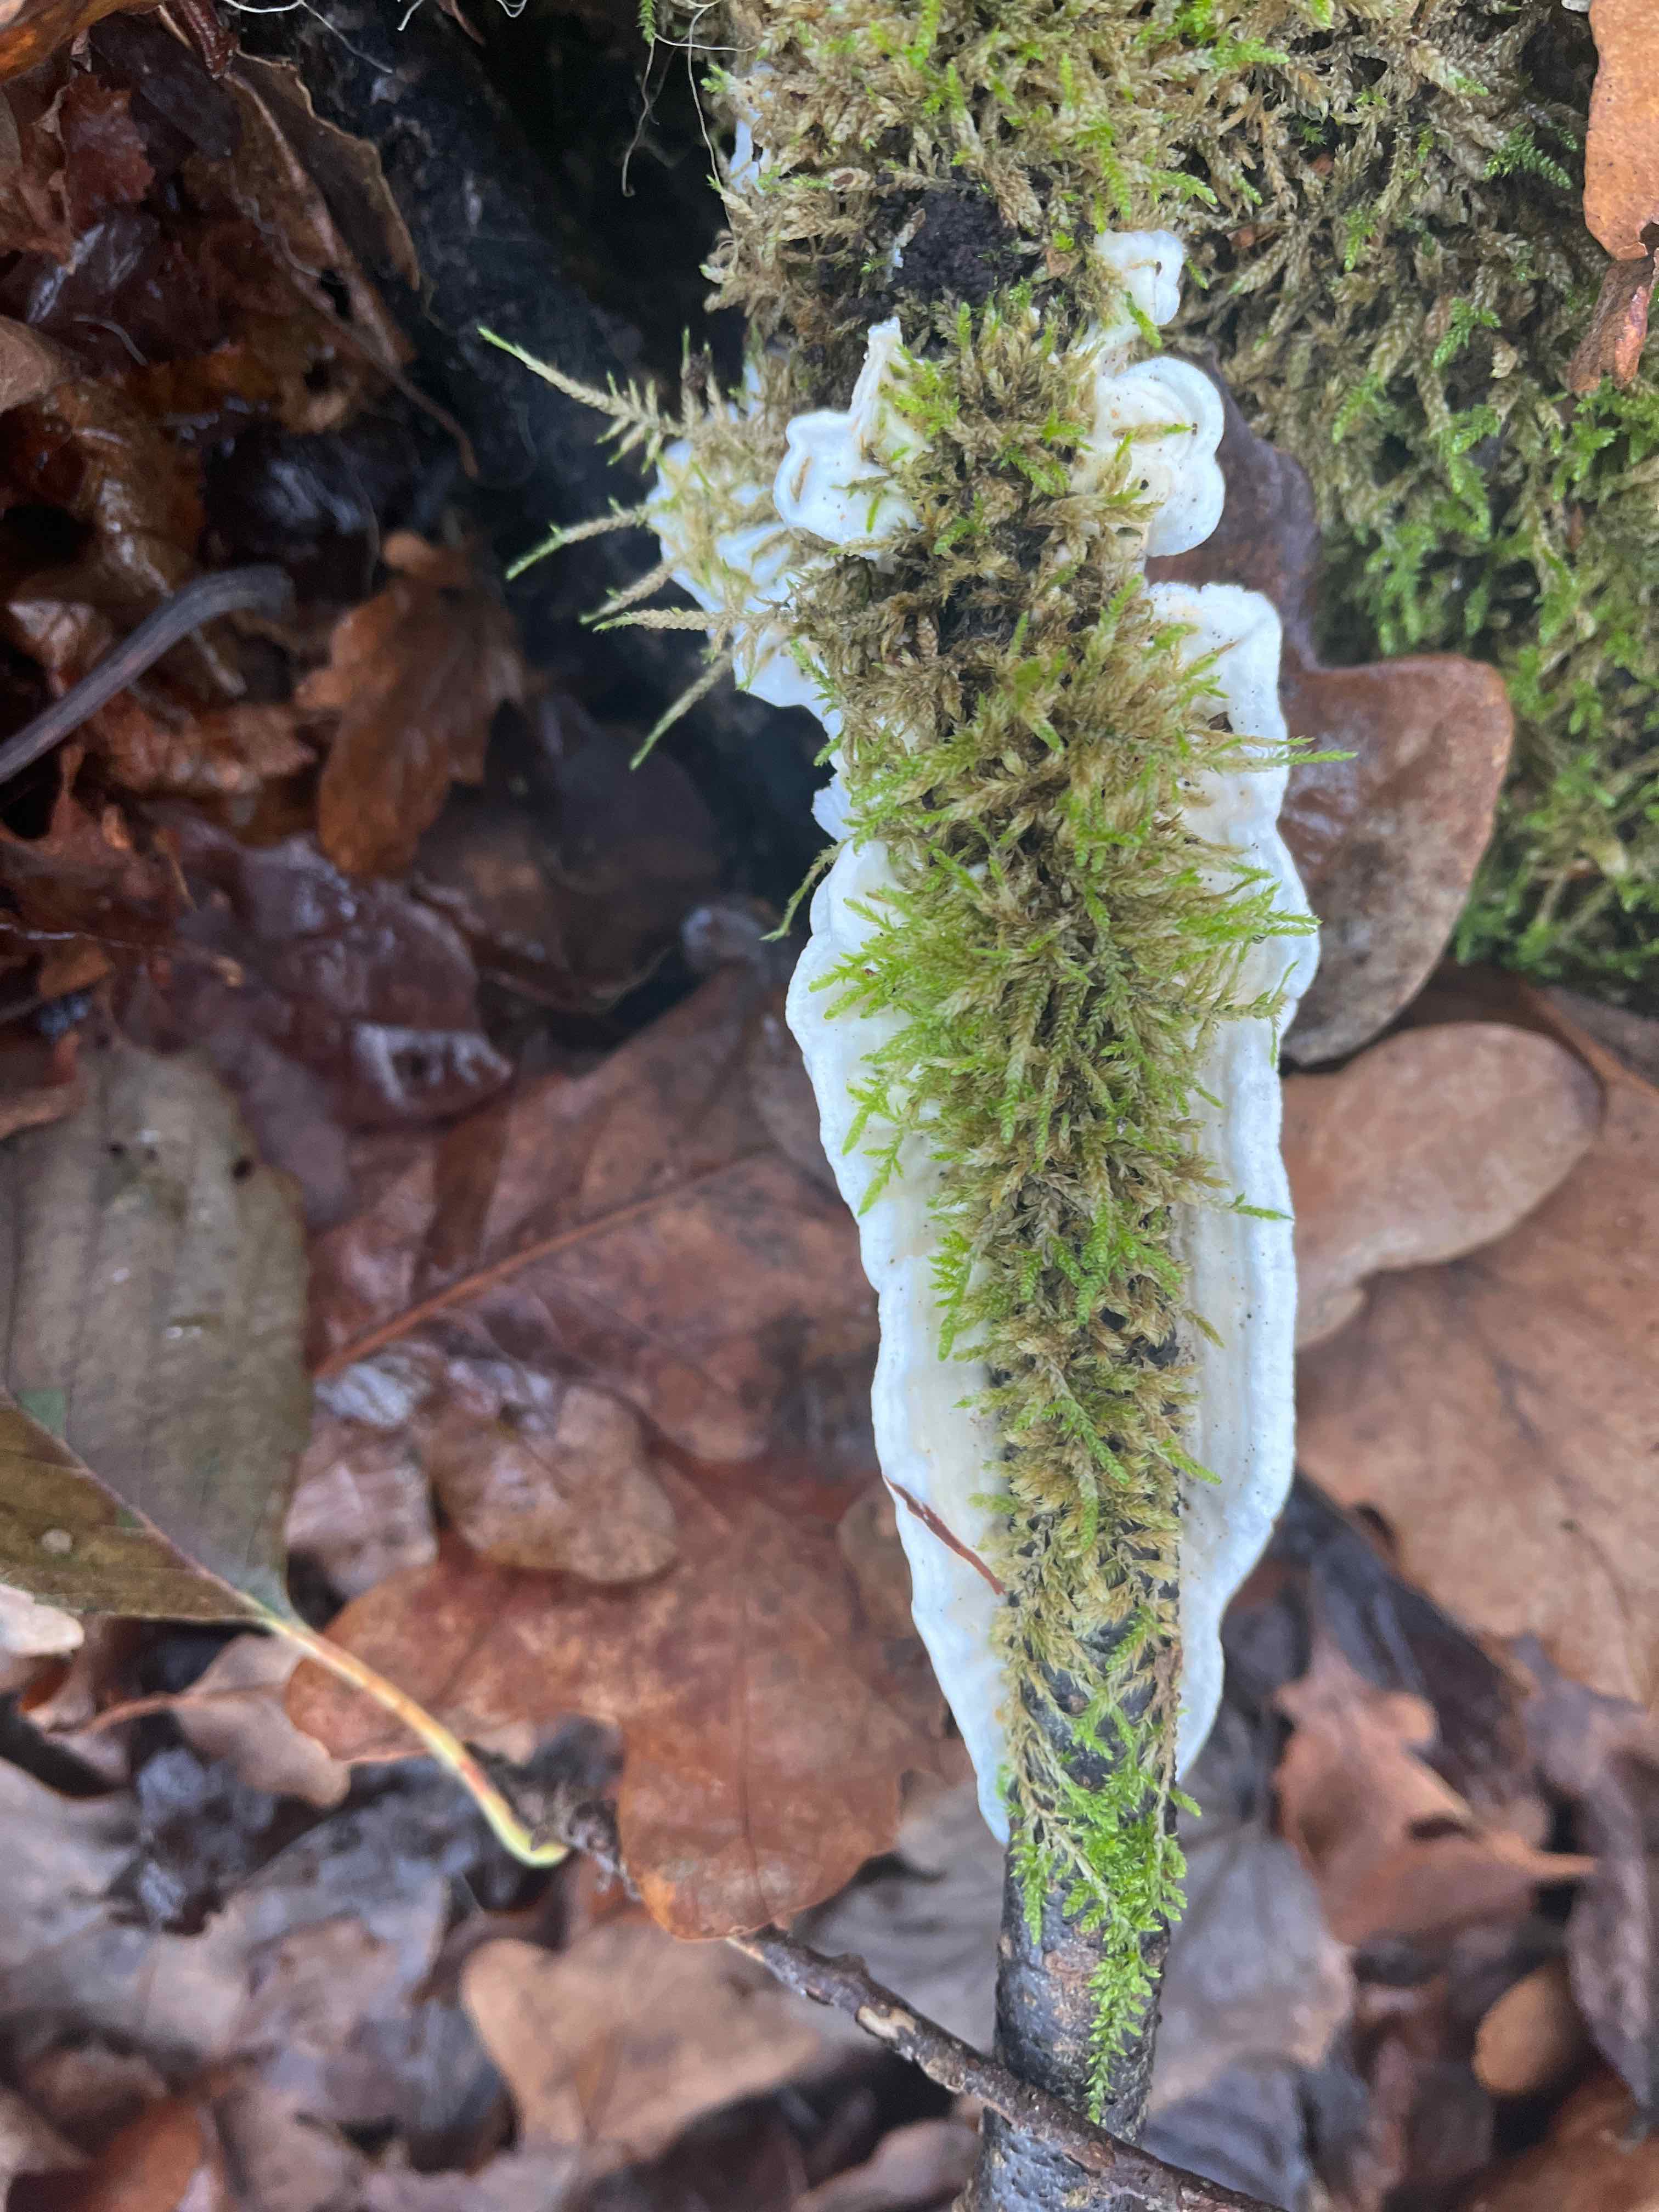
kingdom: Fungi
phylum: Basidiomycota
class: Agaricomycetes
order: Polyporales
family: Irpicaceae
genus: Byssomerulius
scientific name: Byssomerulius corium
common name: læder-åresvamp
